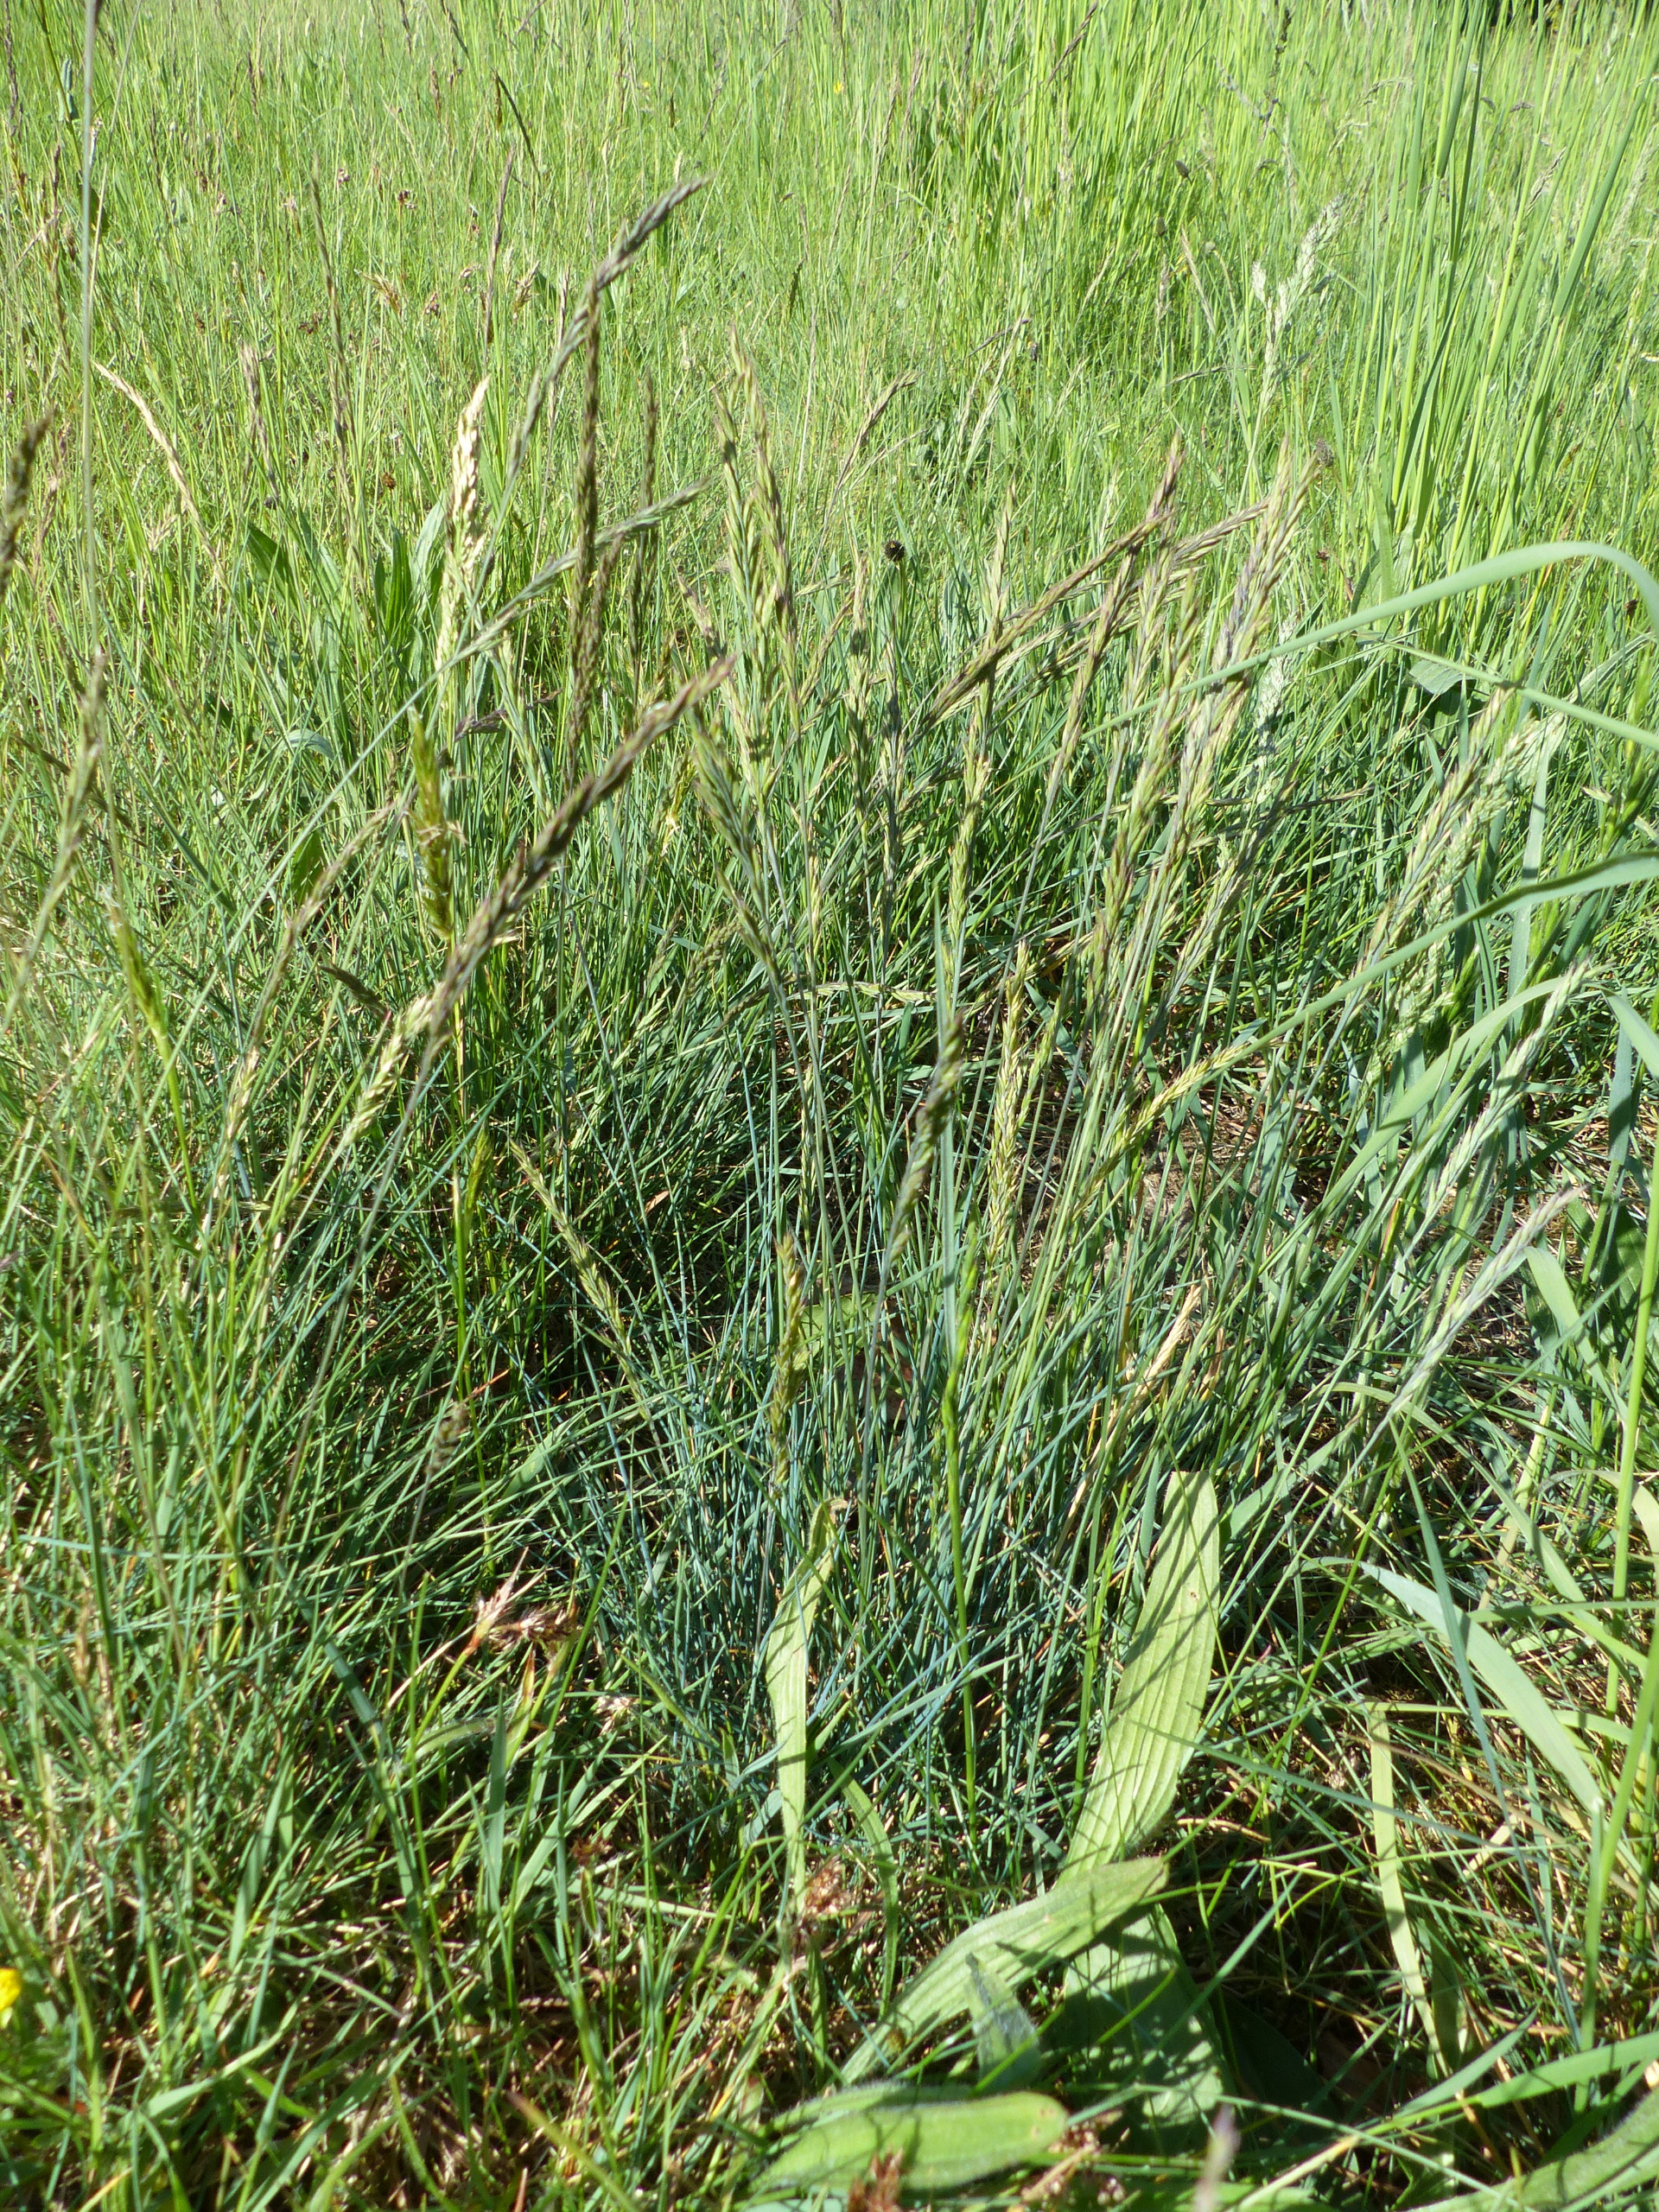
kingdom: Plantae
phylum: Tracheophyta
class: Liliopsida
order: Poales
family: Poaceae
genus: Festuca
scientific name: Festuca trachyphylla
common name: Bakke-svingel
